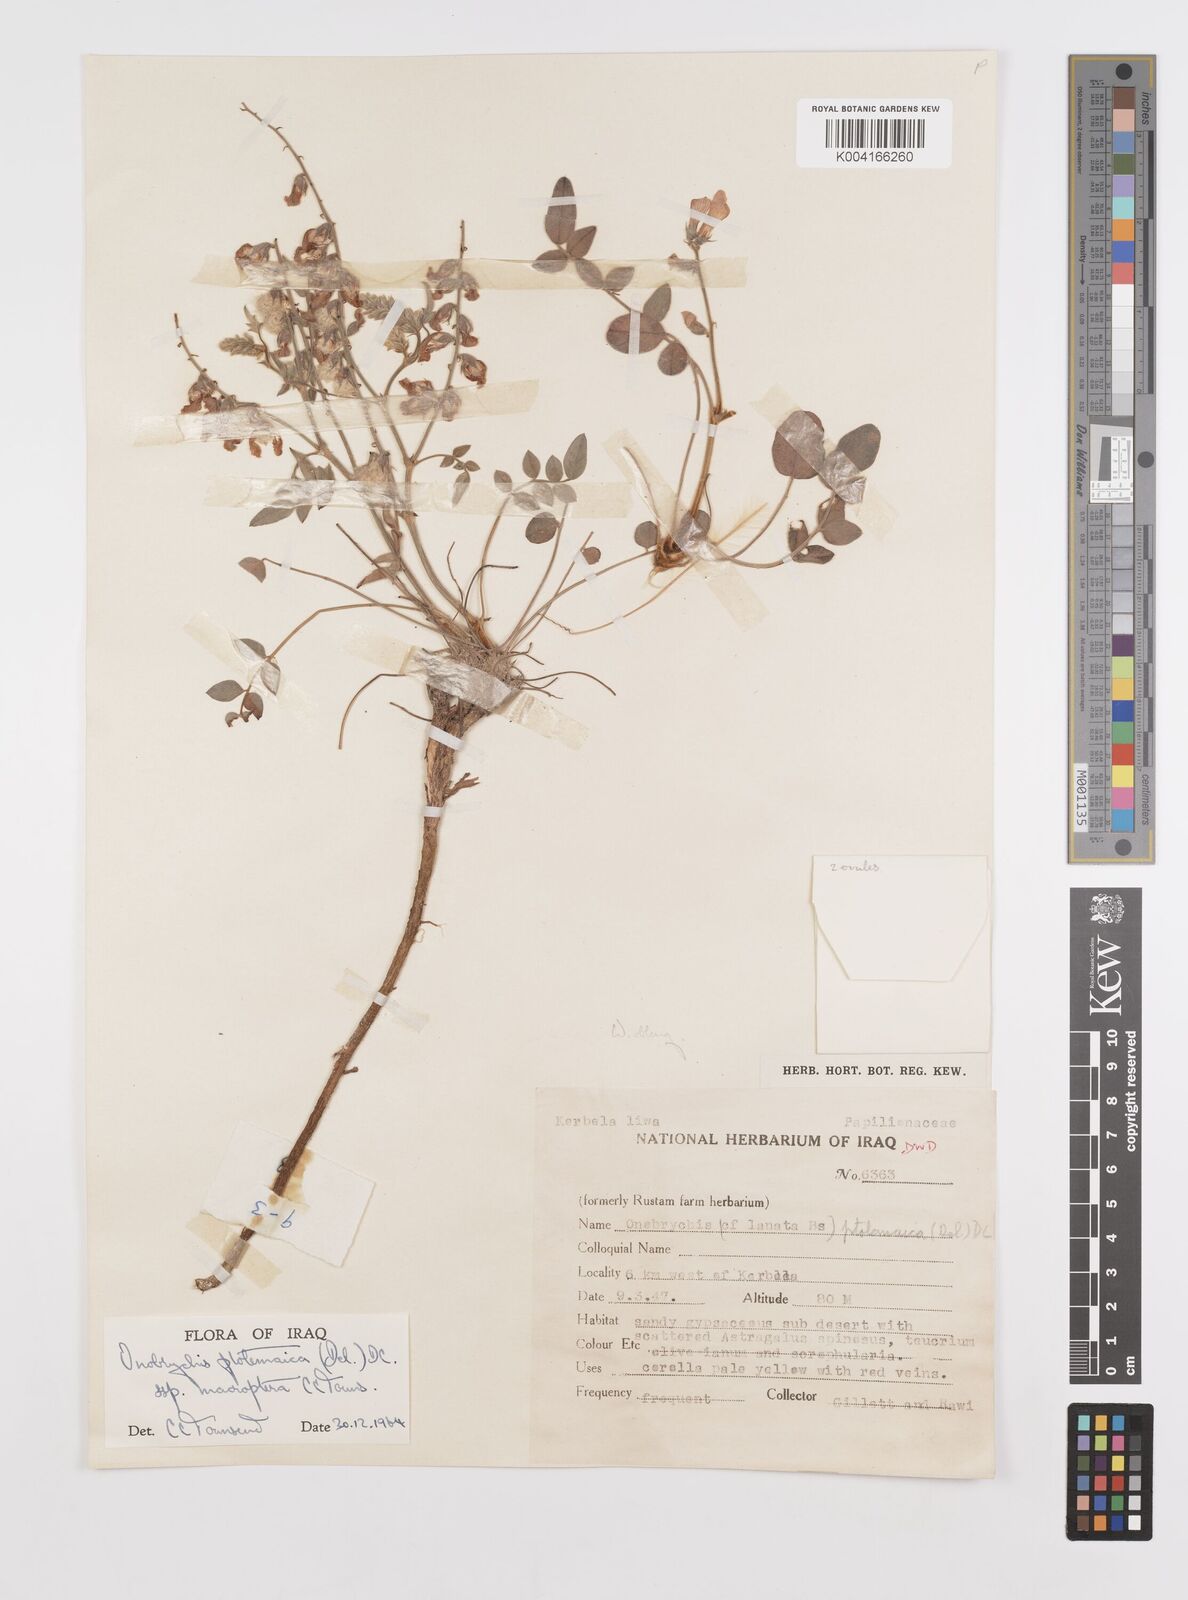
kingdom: Plantae
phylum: Tracheophyta
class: Magnoliopsida
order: Fabales
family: Fabaceae
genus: Onobrychis
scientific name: Onobrychis ptolemaica
